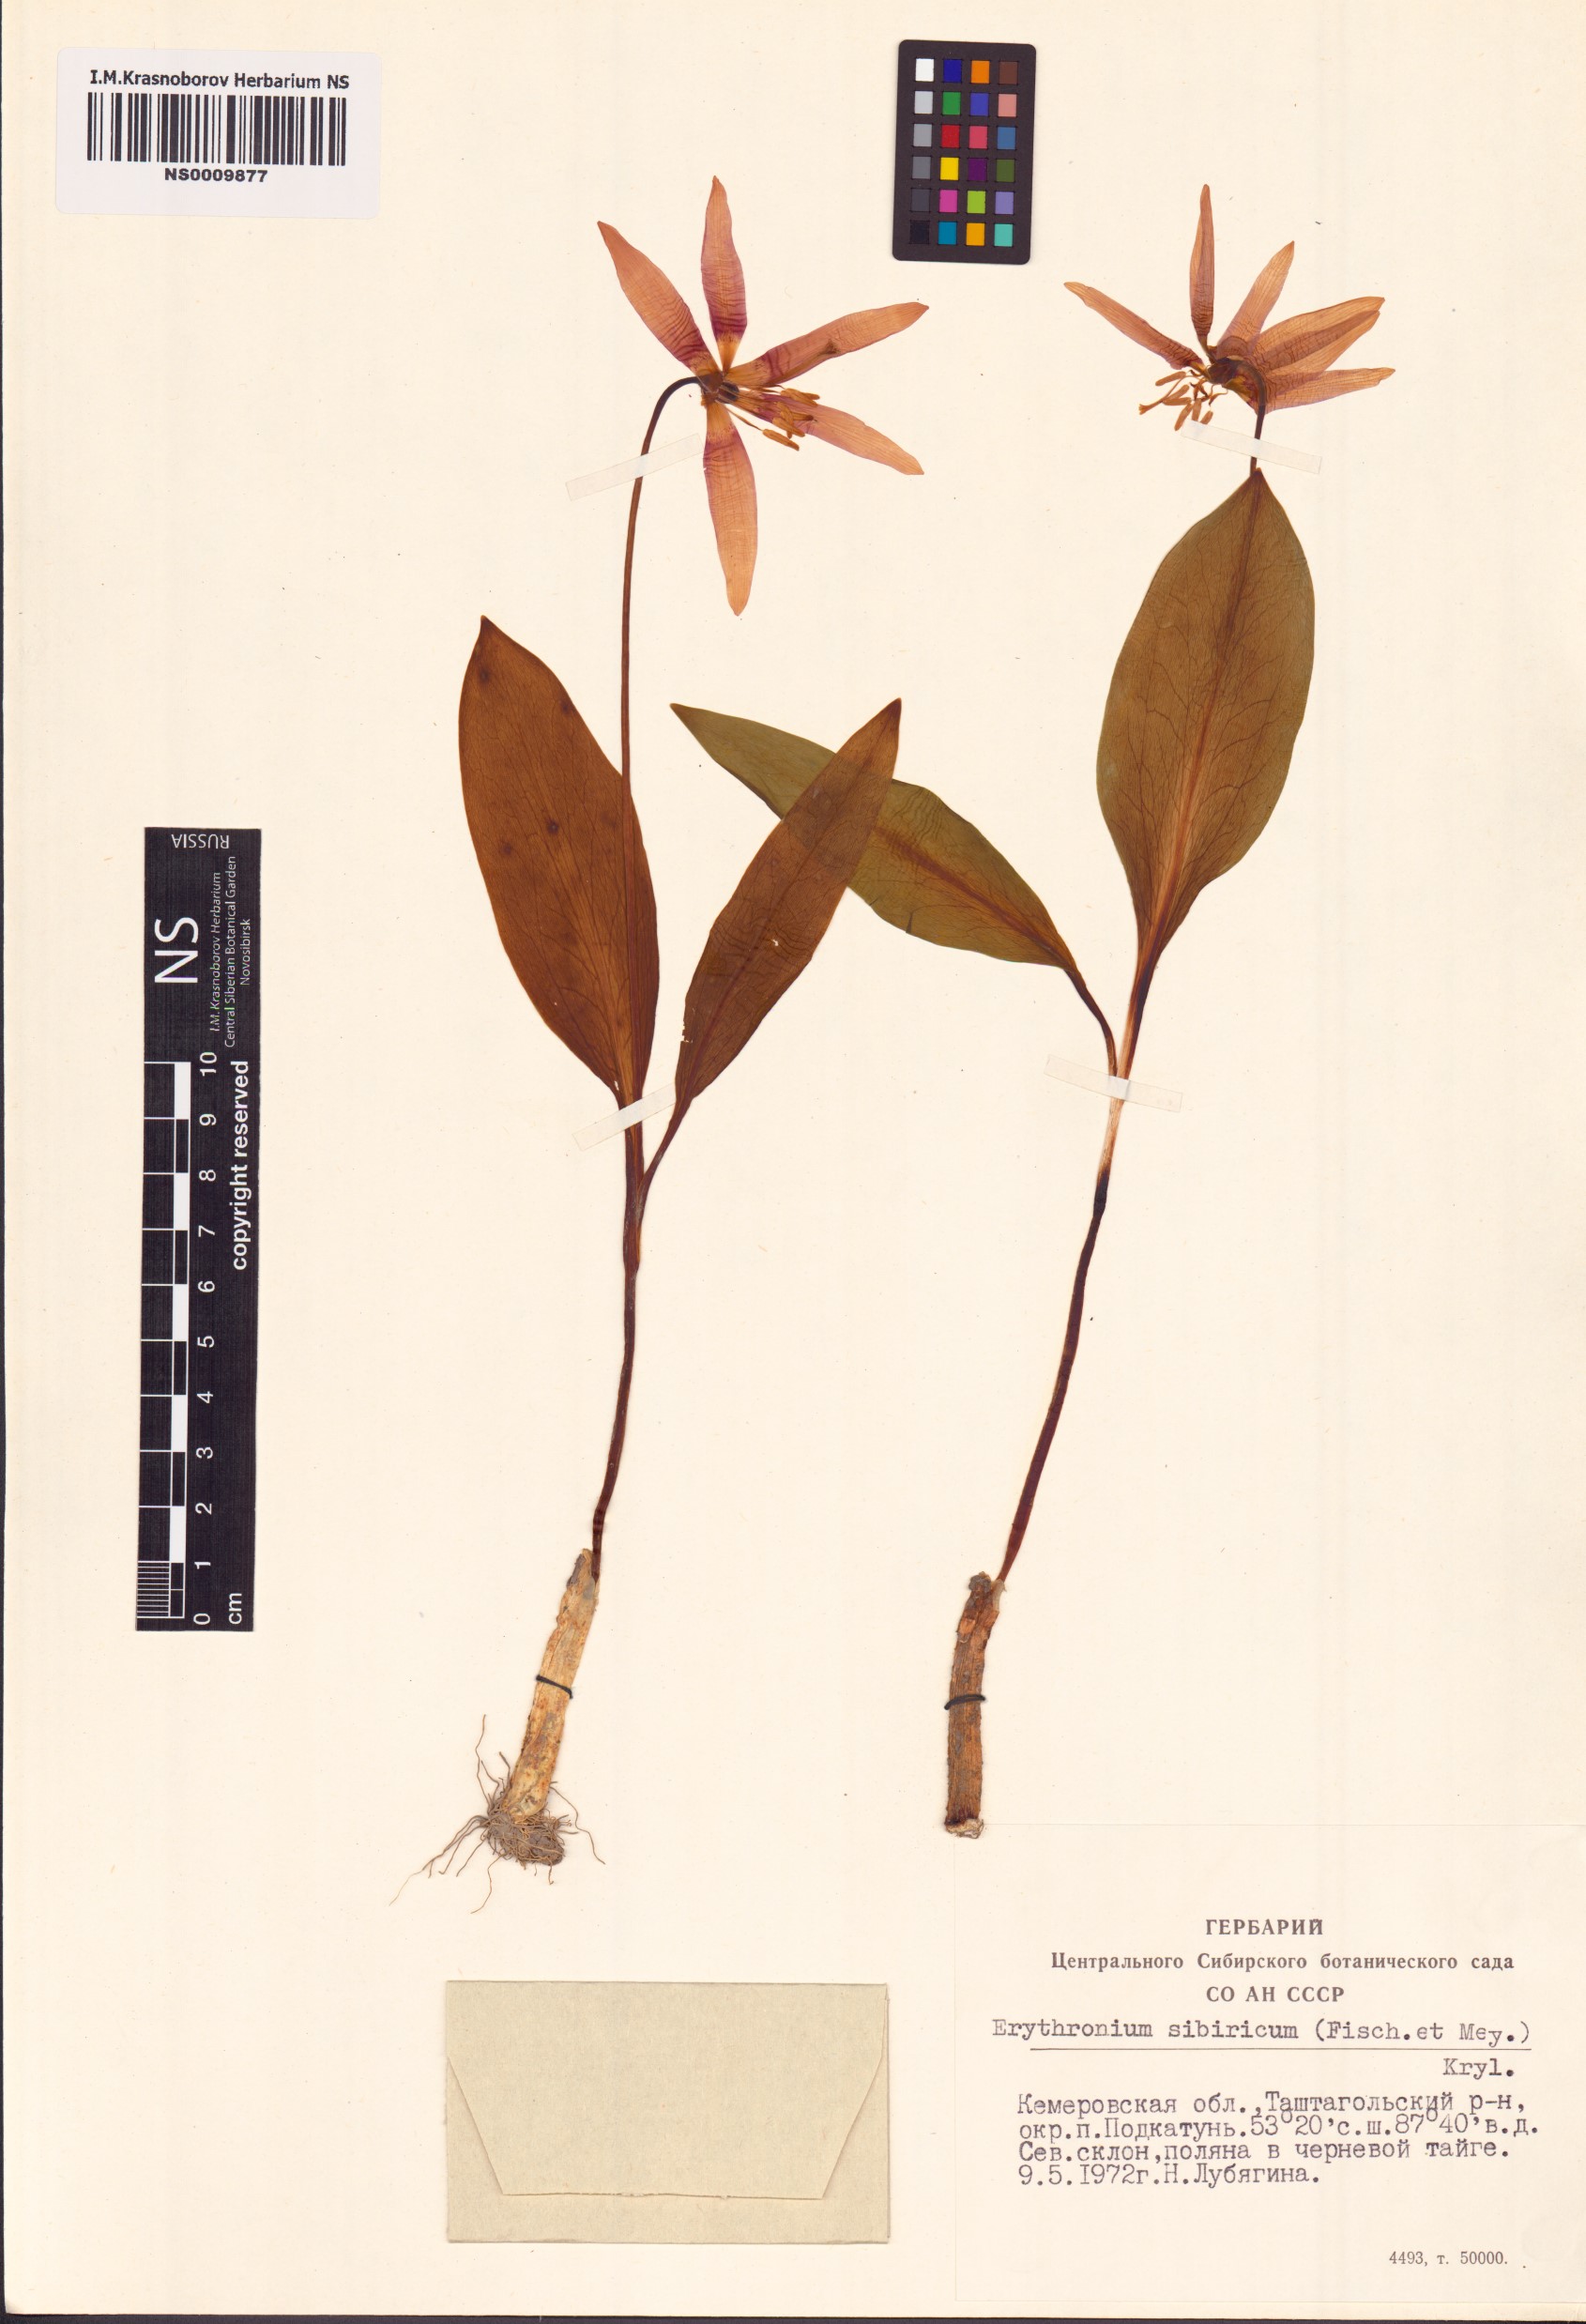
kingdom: Plantae
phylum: Tracheophyta
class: Liliopsida
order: Liliales
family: Liliaceae
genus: Erythronium
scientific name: Erythronium sibiricum
